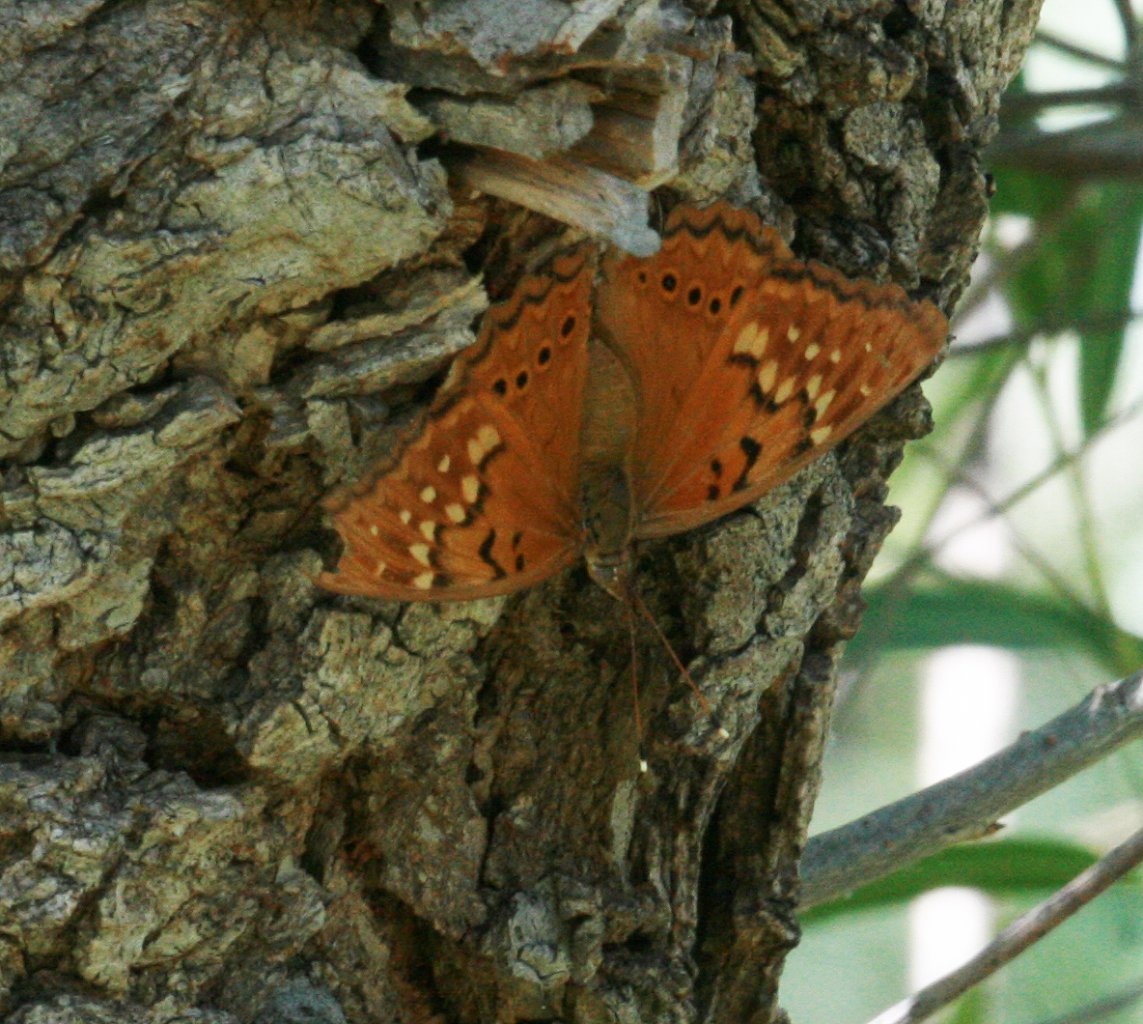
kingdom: Animalia
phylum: Arthropoda
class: Insecta
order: Lepidoptera
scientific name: Lepidoptera
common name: Butterflies
